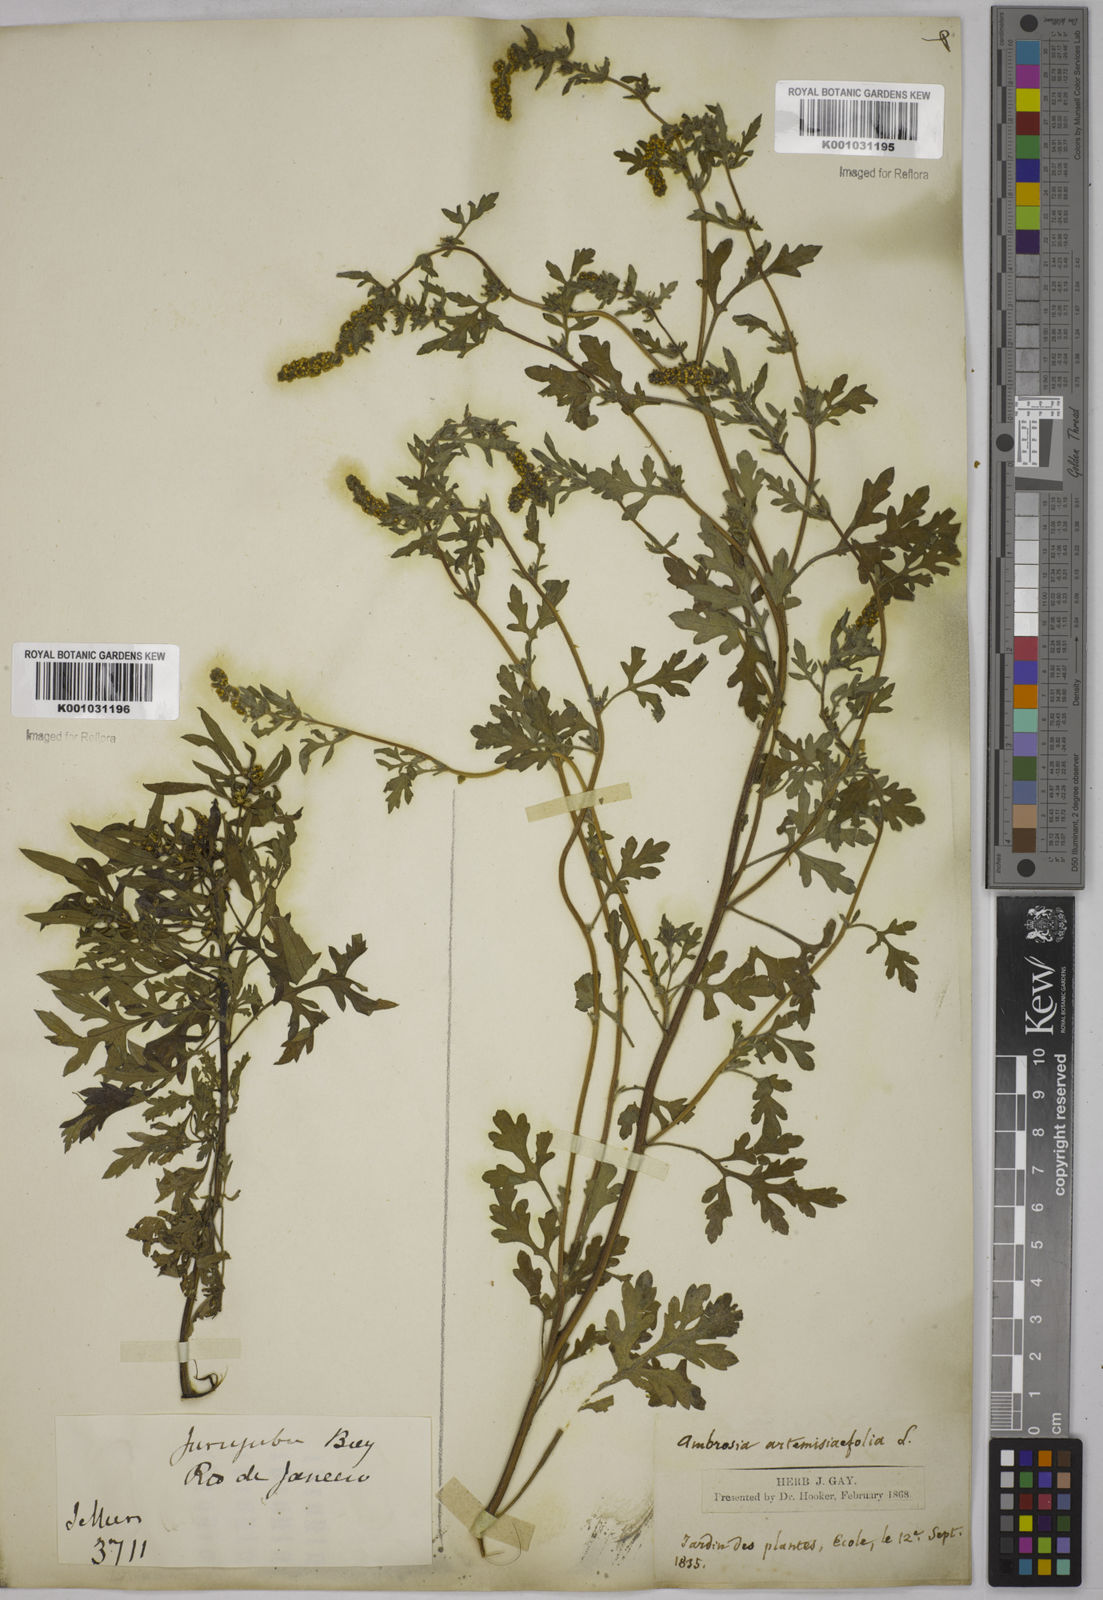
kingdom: Plantae
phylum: Tracheophyta
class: Magnoliopsida
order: Asterales
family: Asteraceae
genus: Ambrosia
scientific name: Ambrosia artemisiifolia
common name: Annual ragweed
